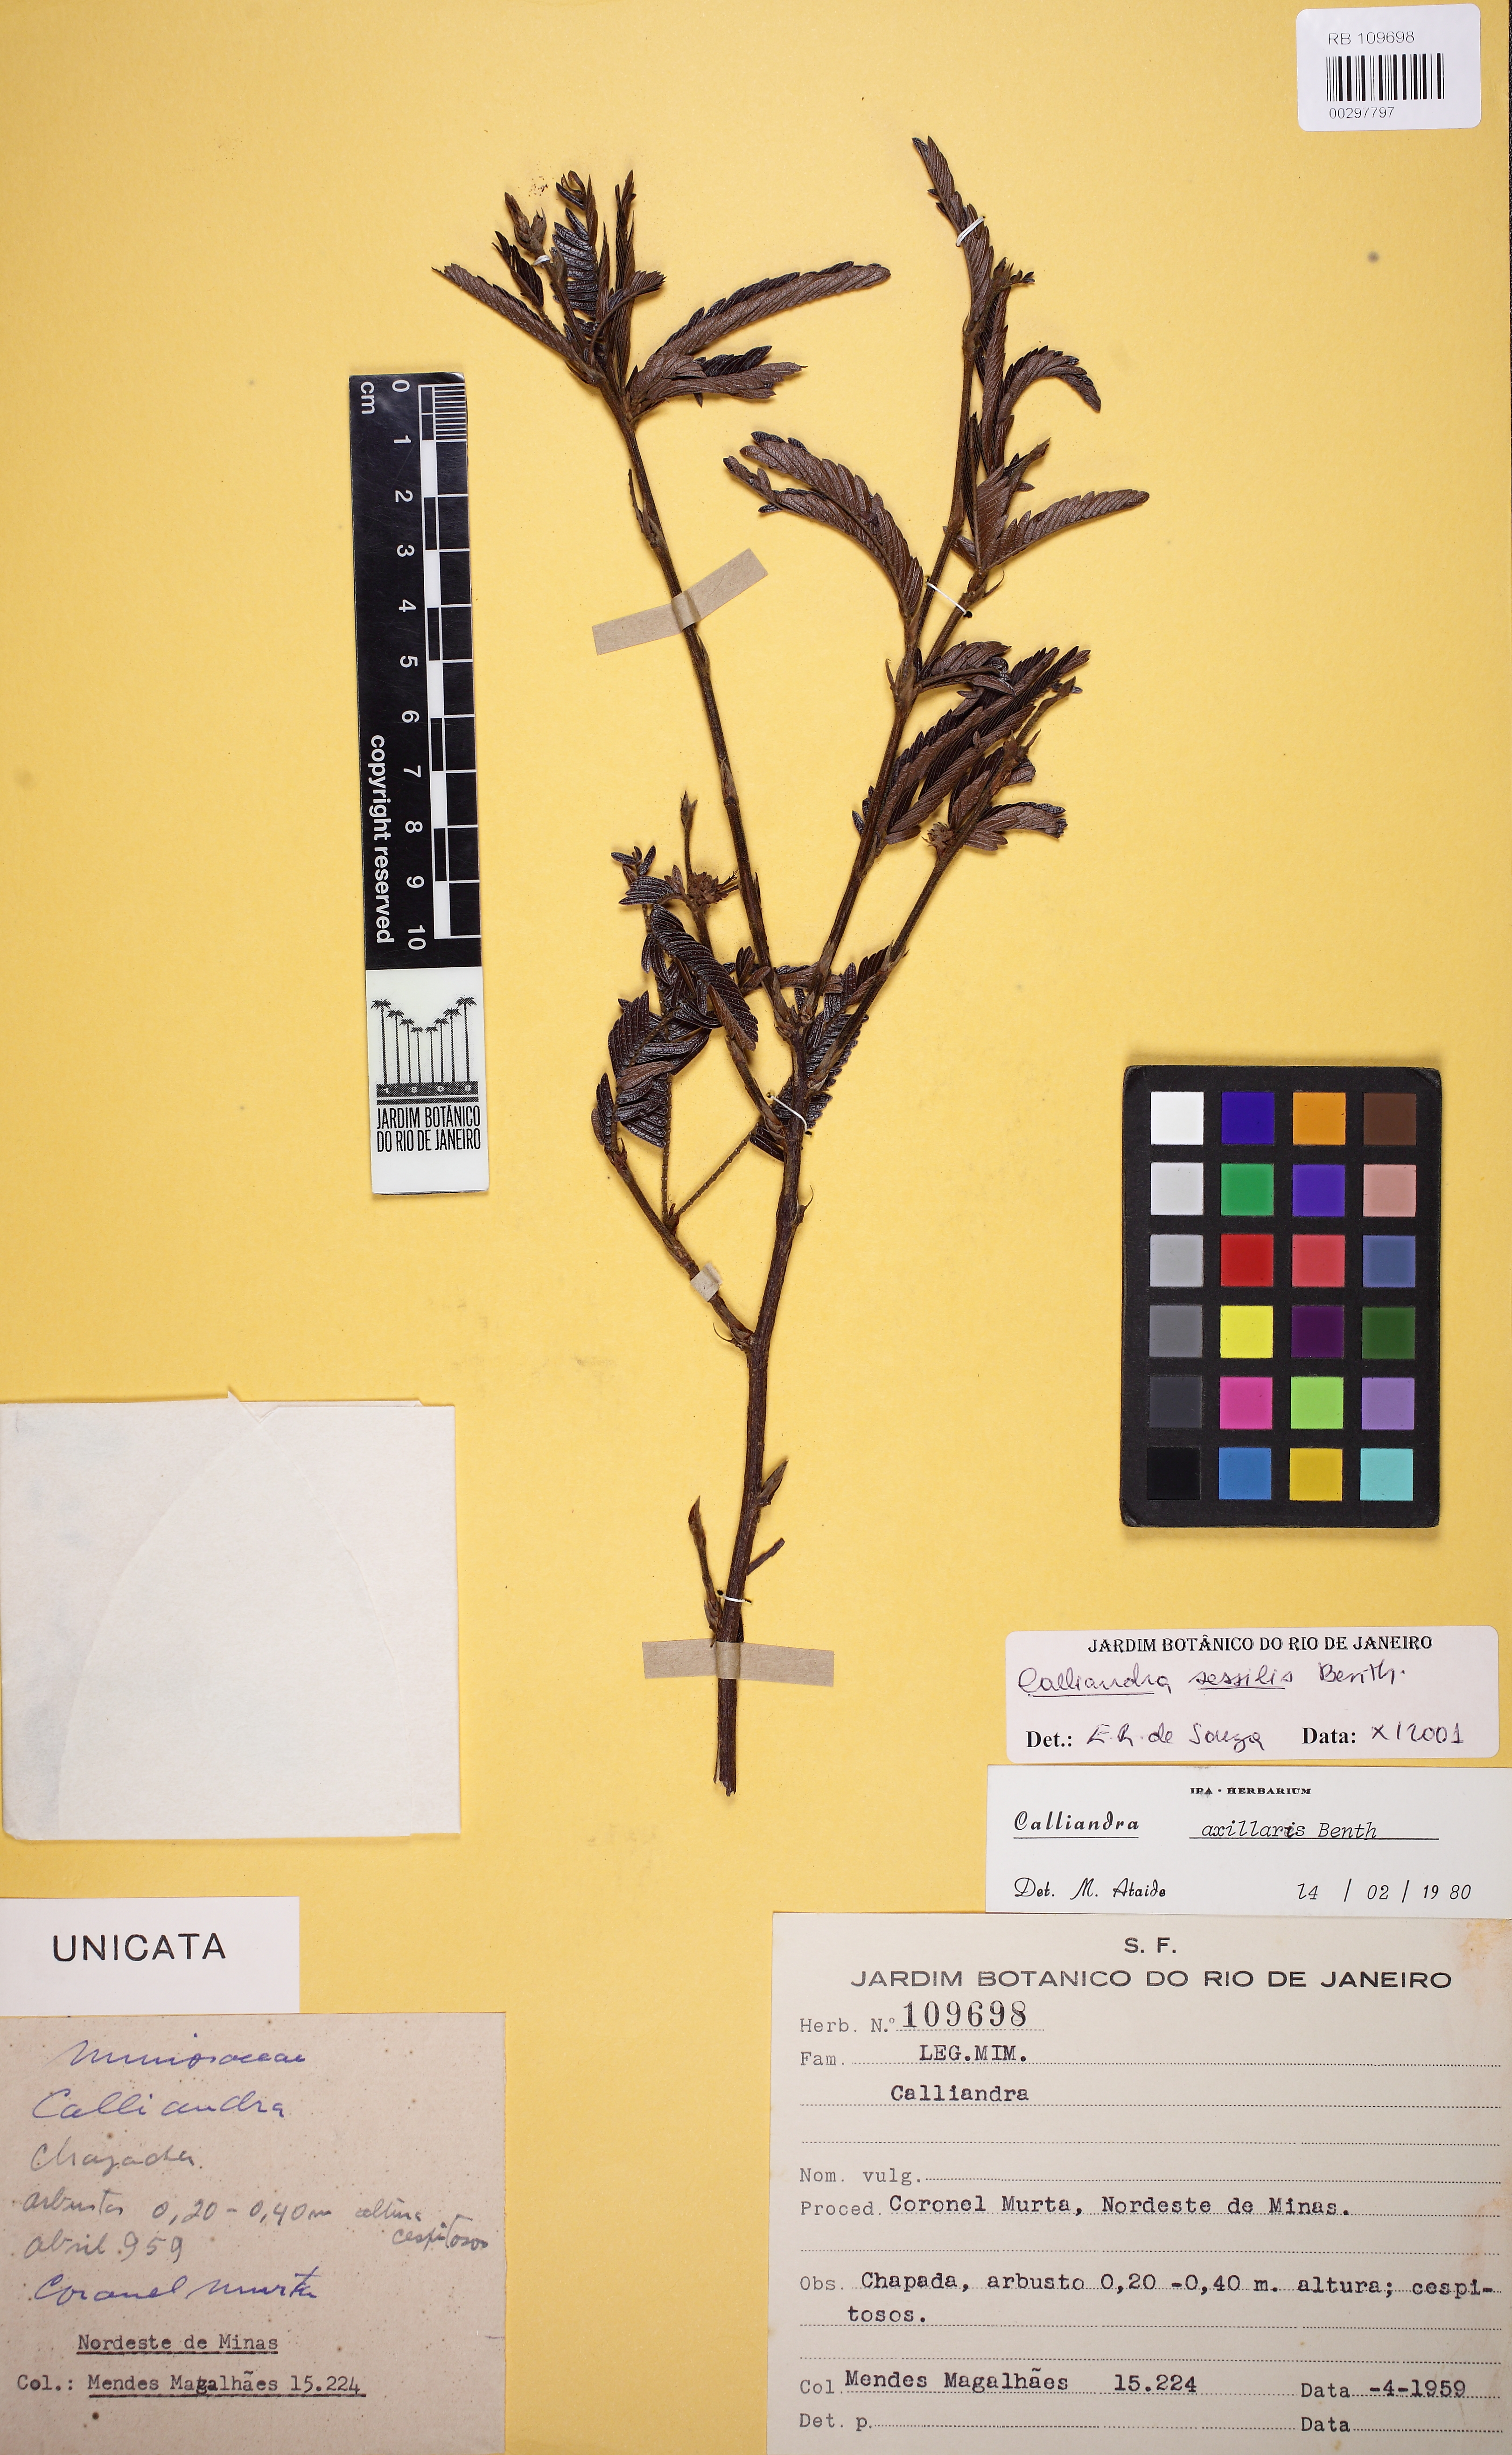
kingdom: Plantae
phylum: Tracheophyta
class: Magnoliopsida
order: Fabales
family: Fabaceae
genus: Calliandra
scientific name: Calliandra sessilis
